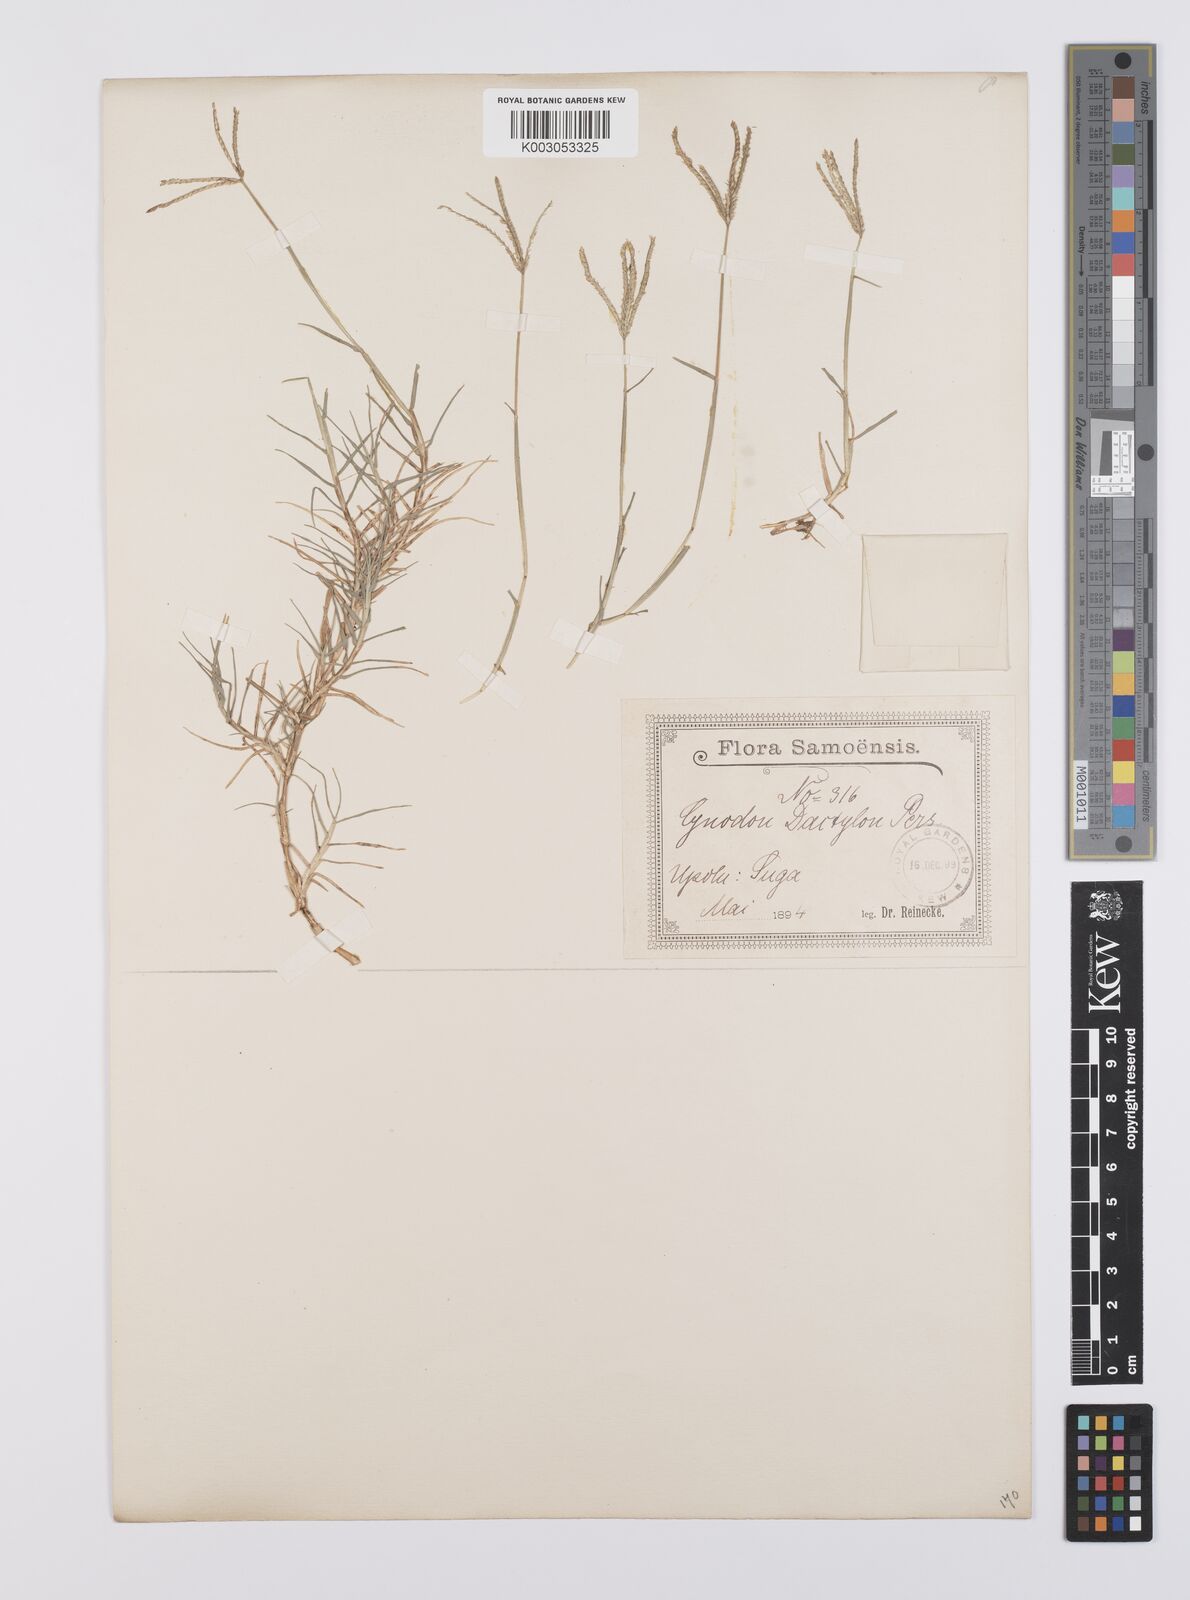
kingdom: Plantae
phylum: Tracheophyta
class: Liliopsida
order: Poales
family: Poaceae
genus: Cynodon
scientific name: Cynodon dactylon
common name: Bermuda grass
